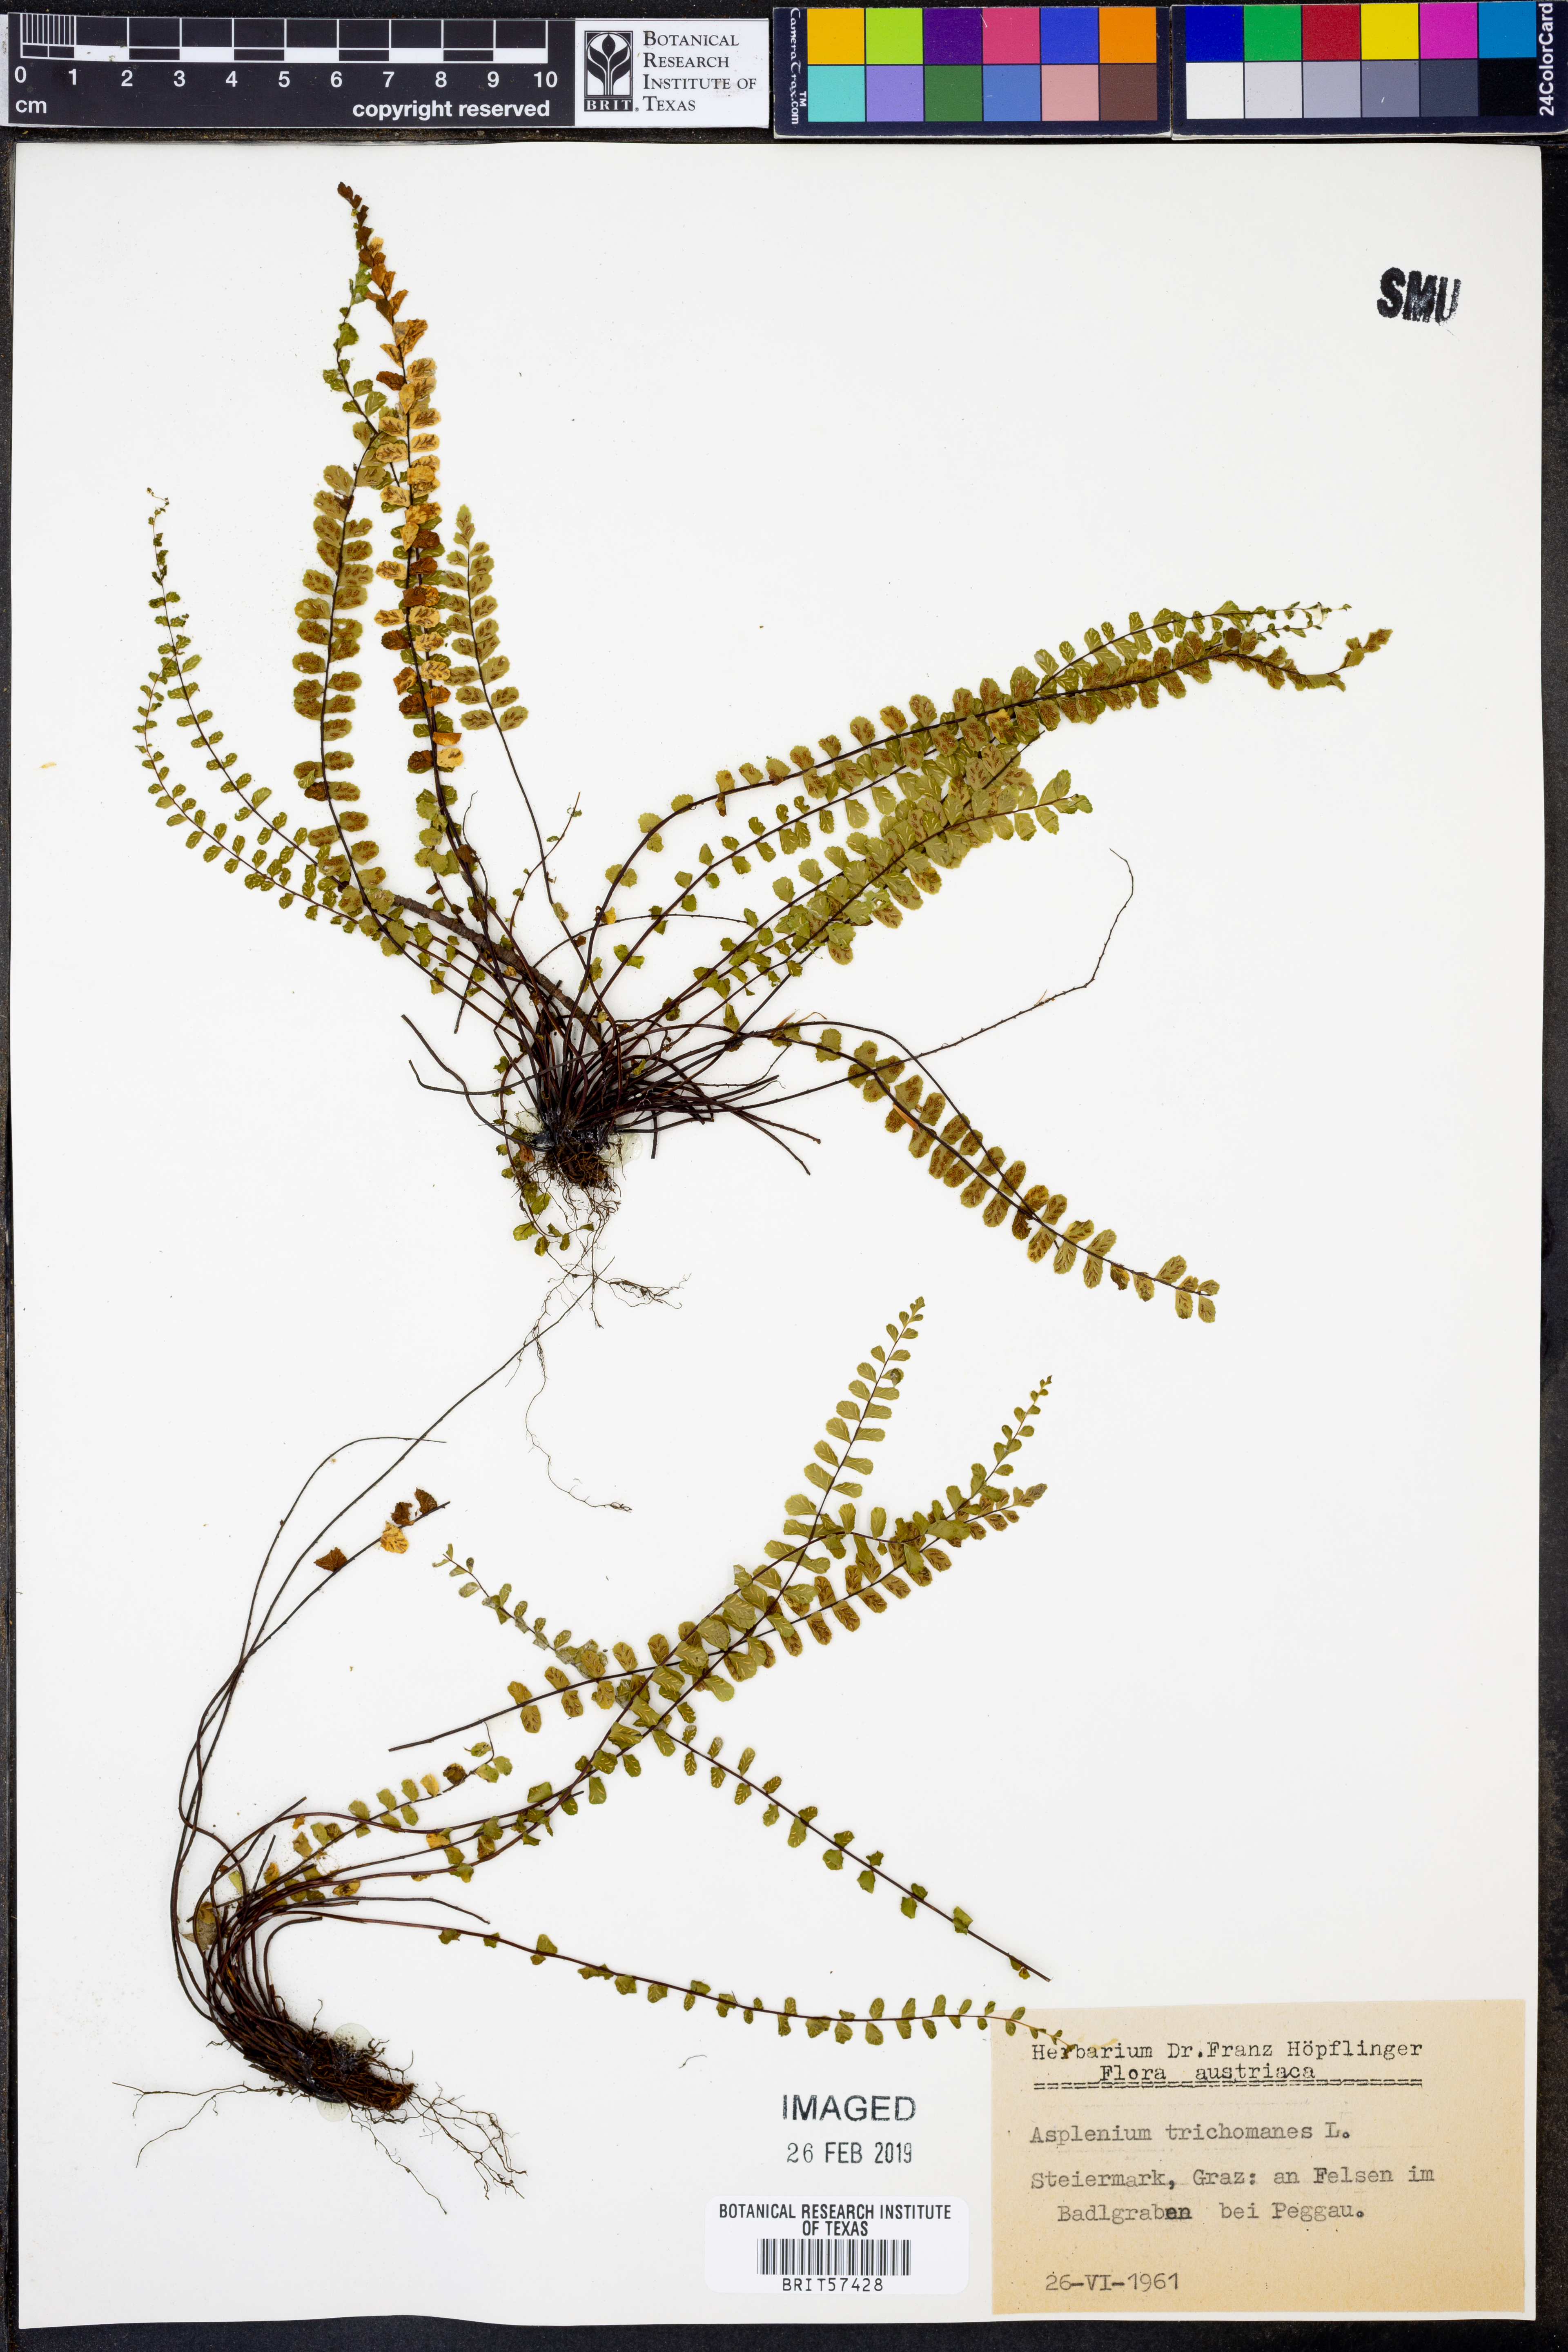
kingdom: Plantae
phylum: Tracheophyta
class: Polypodiopsida
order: Polypodiales
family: Aspleniaceae
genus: Asplenium
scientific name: Asplenium trichomanes
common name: Maidenhair spleenwort
